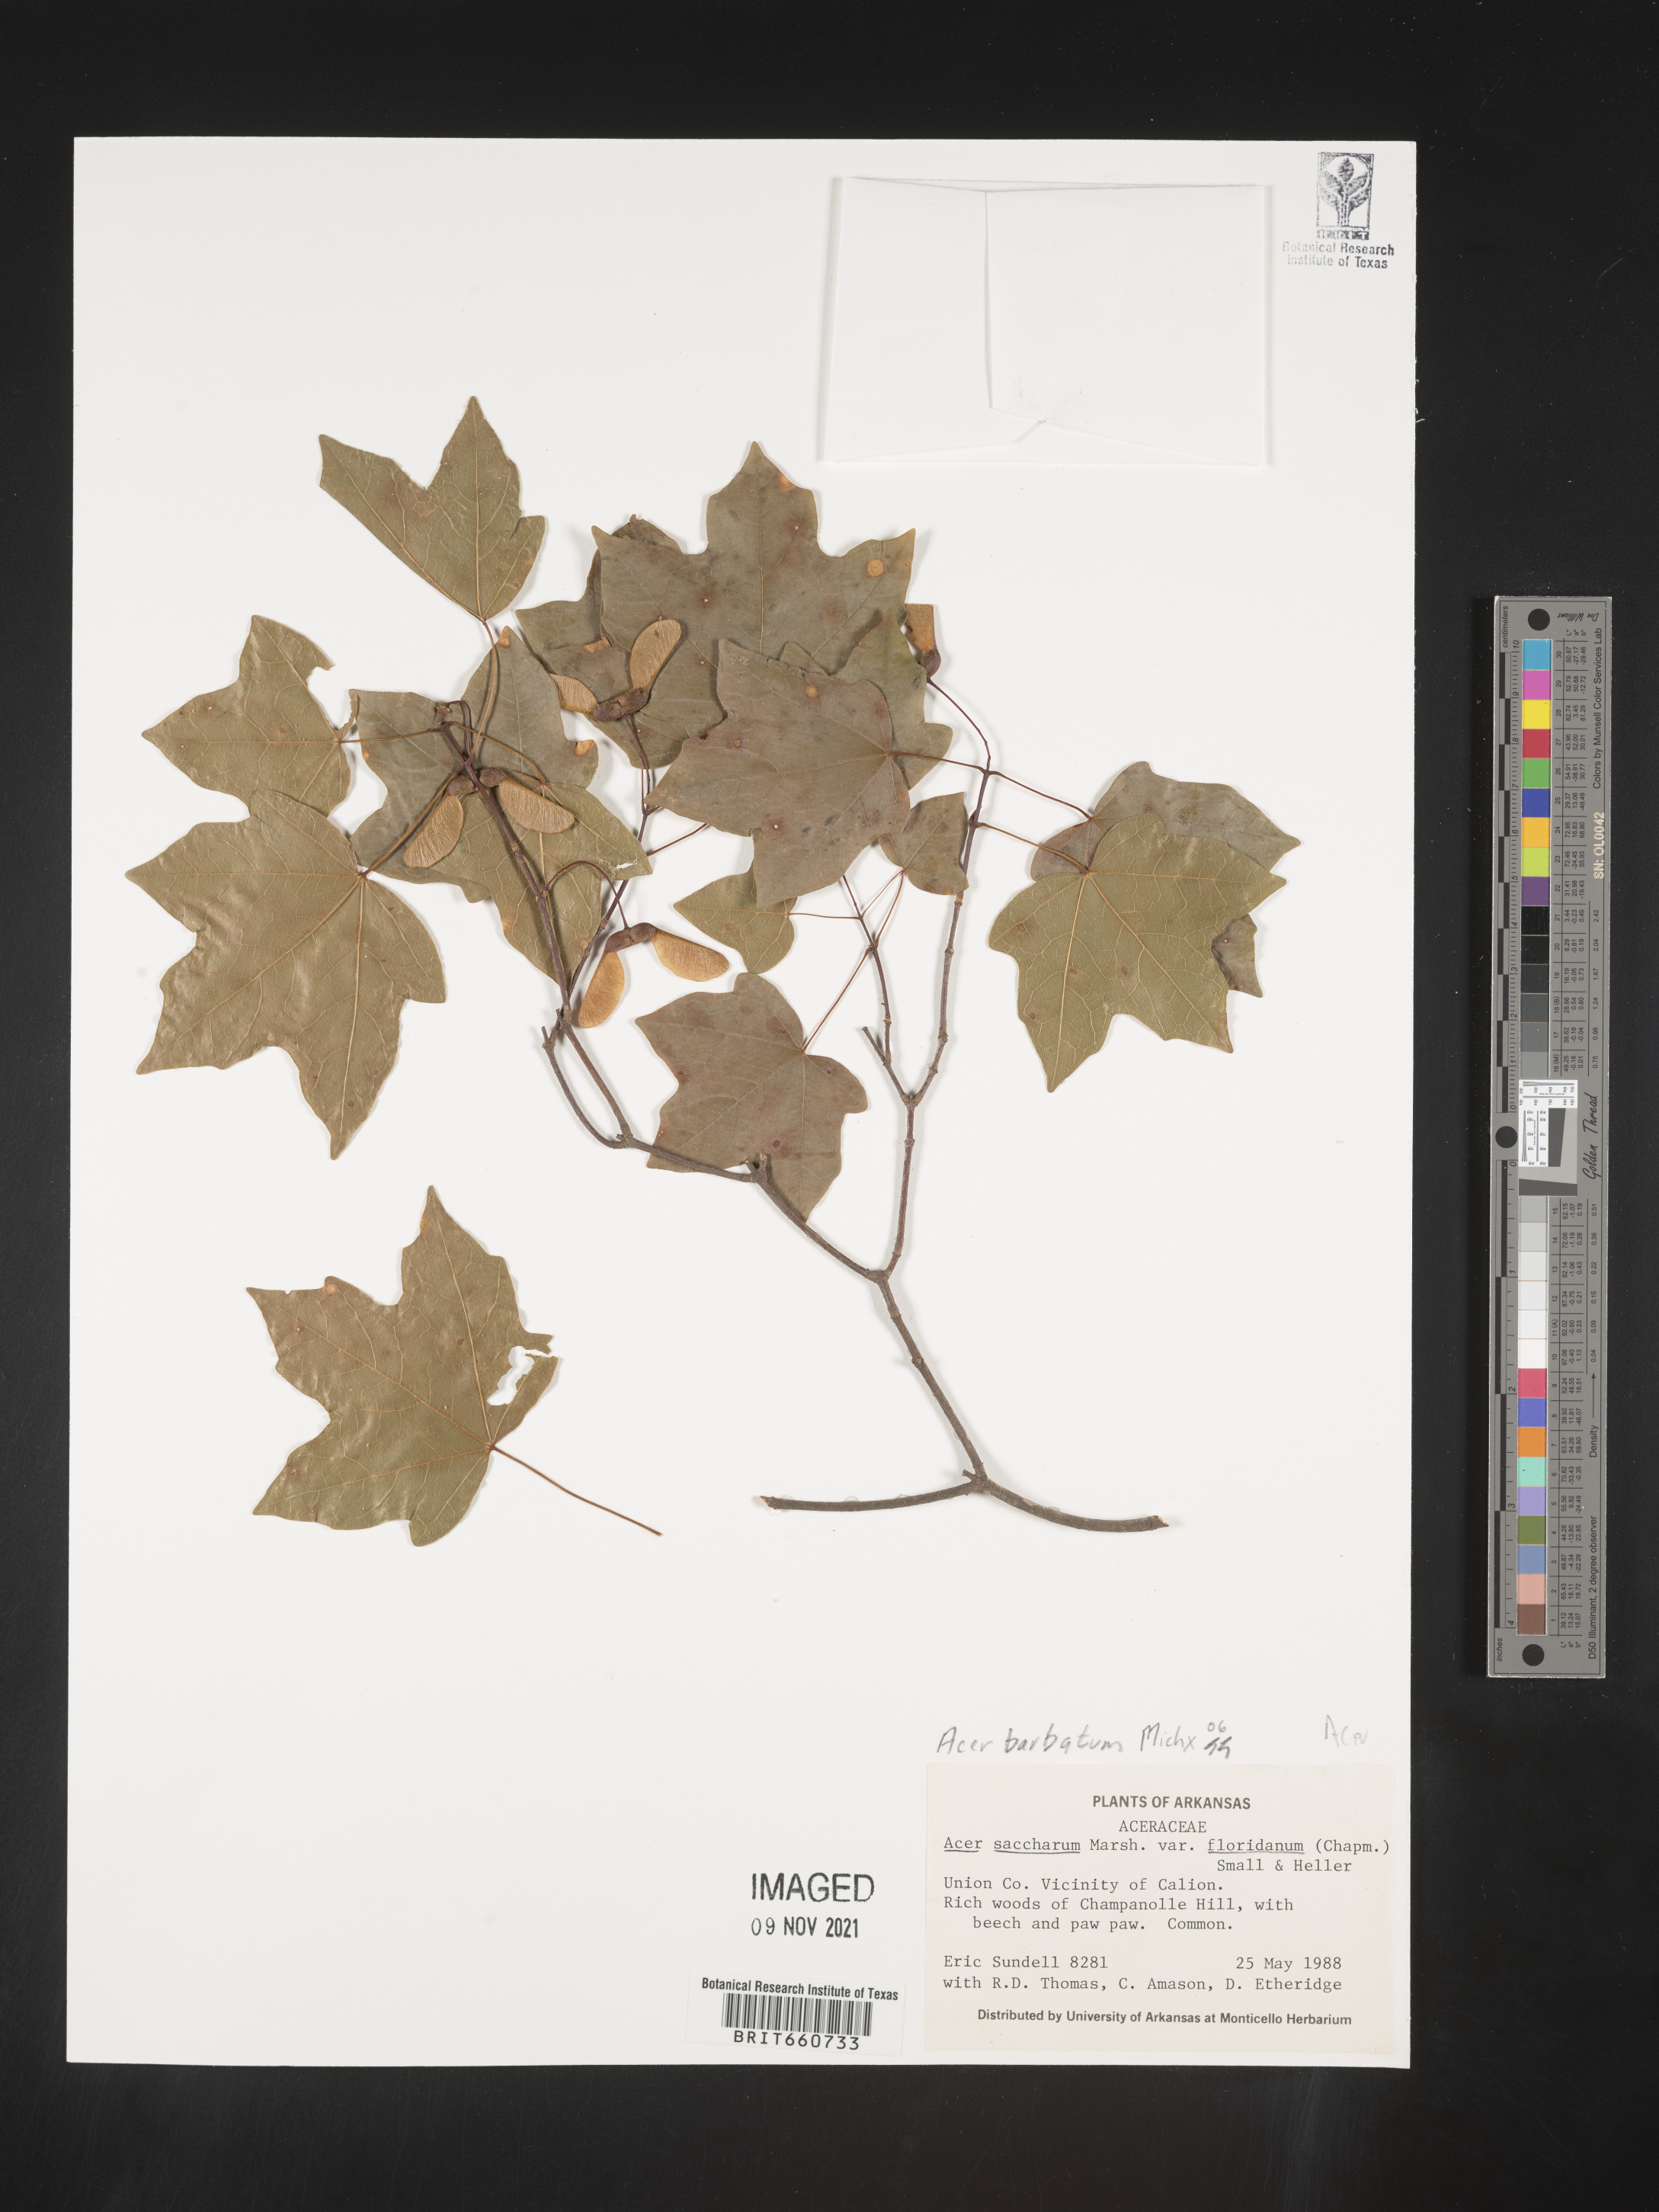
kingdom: Plantae
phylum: Tracheophyta
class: Magnoliopsida
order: Sapindales
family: Sapindaceae
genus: Acer
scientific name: Acer barbatum
